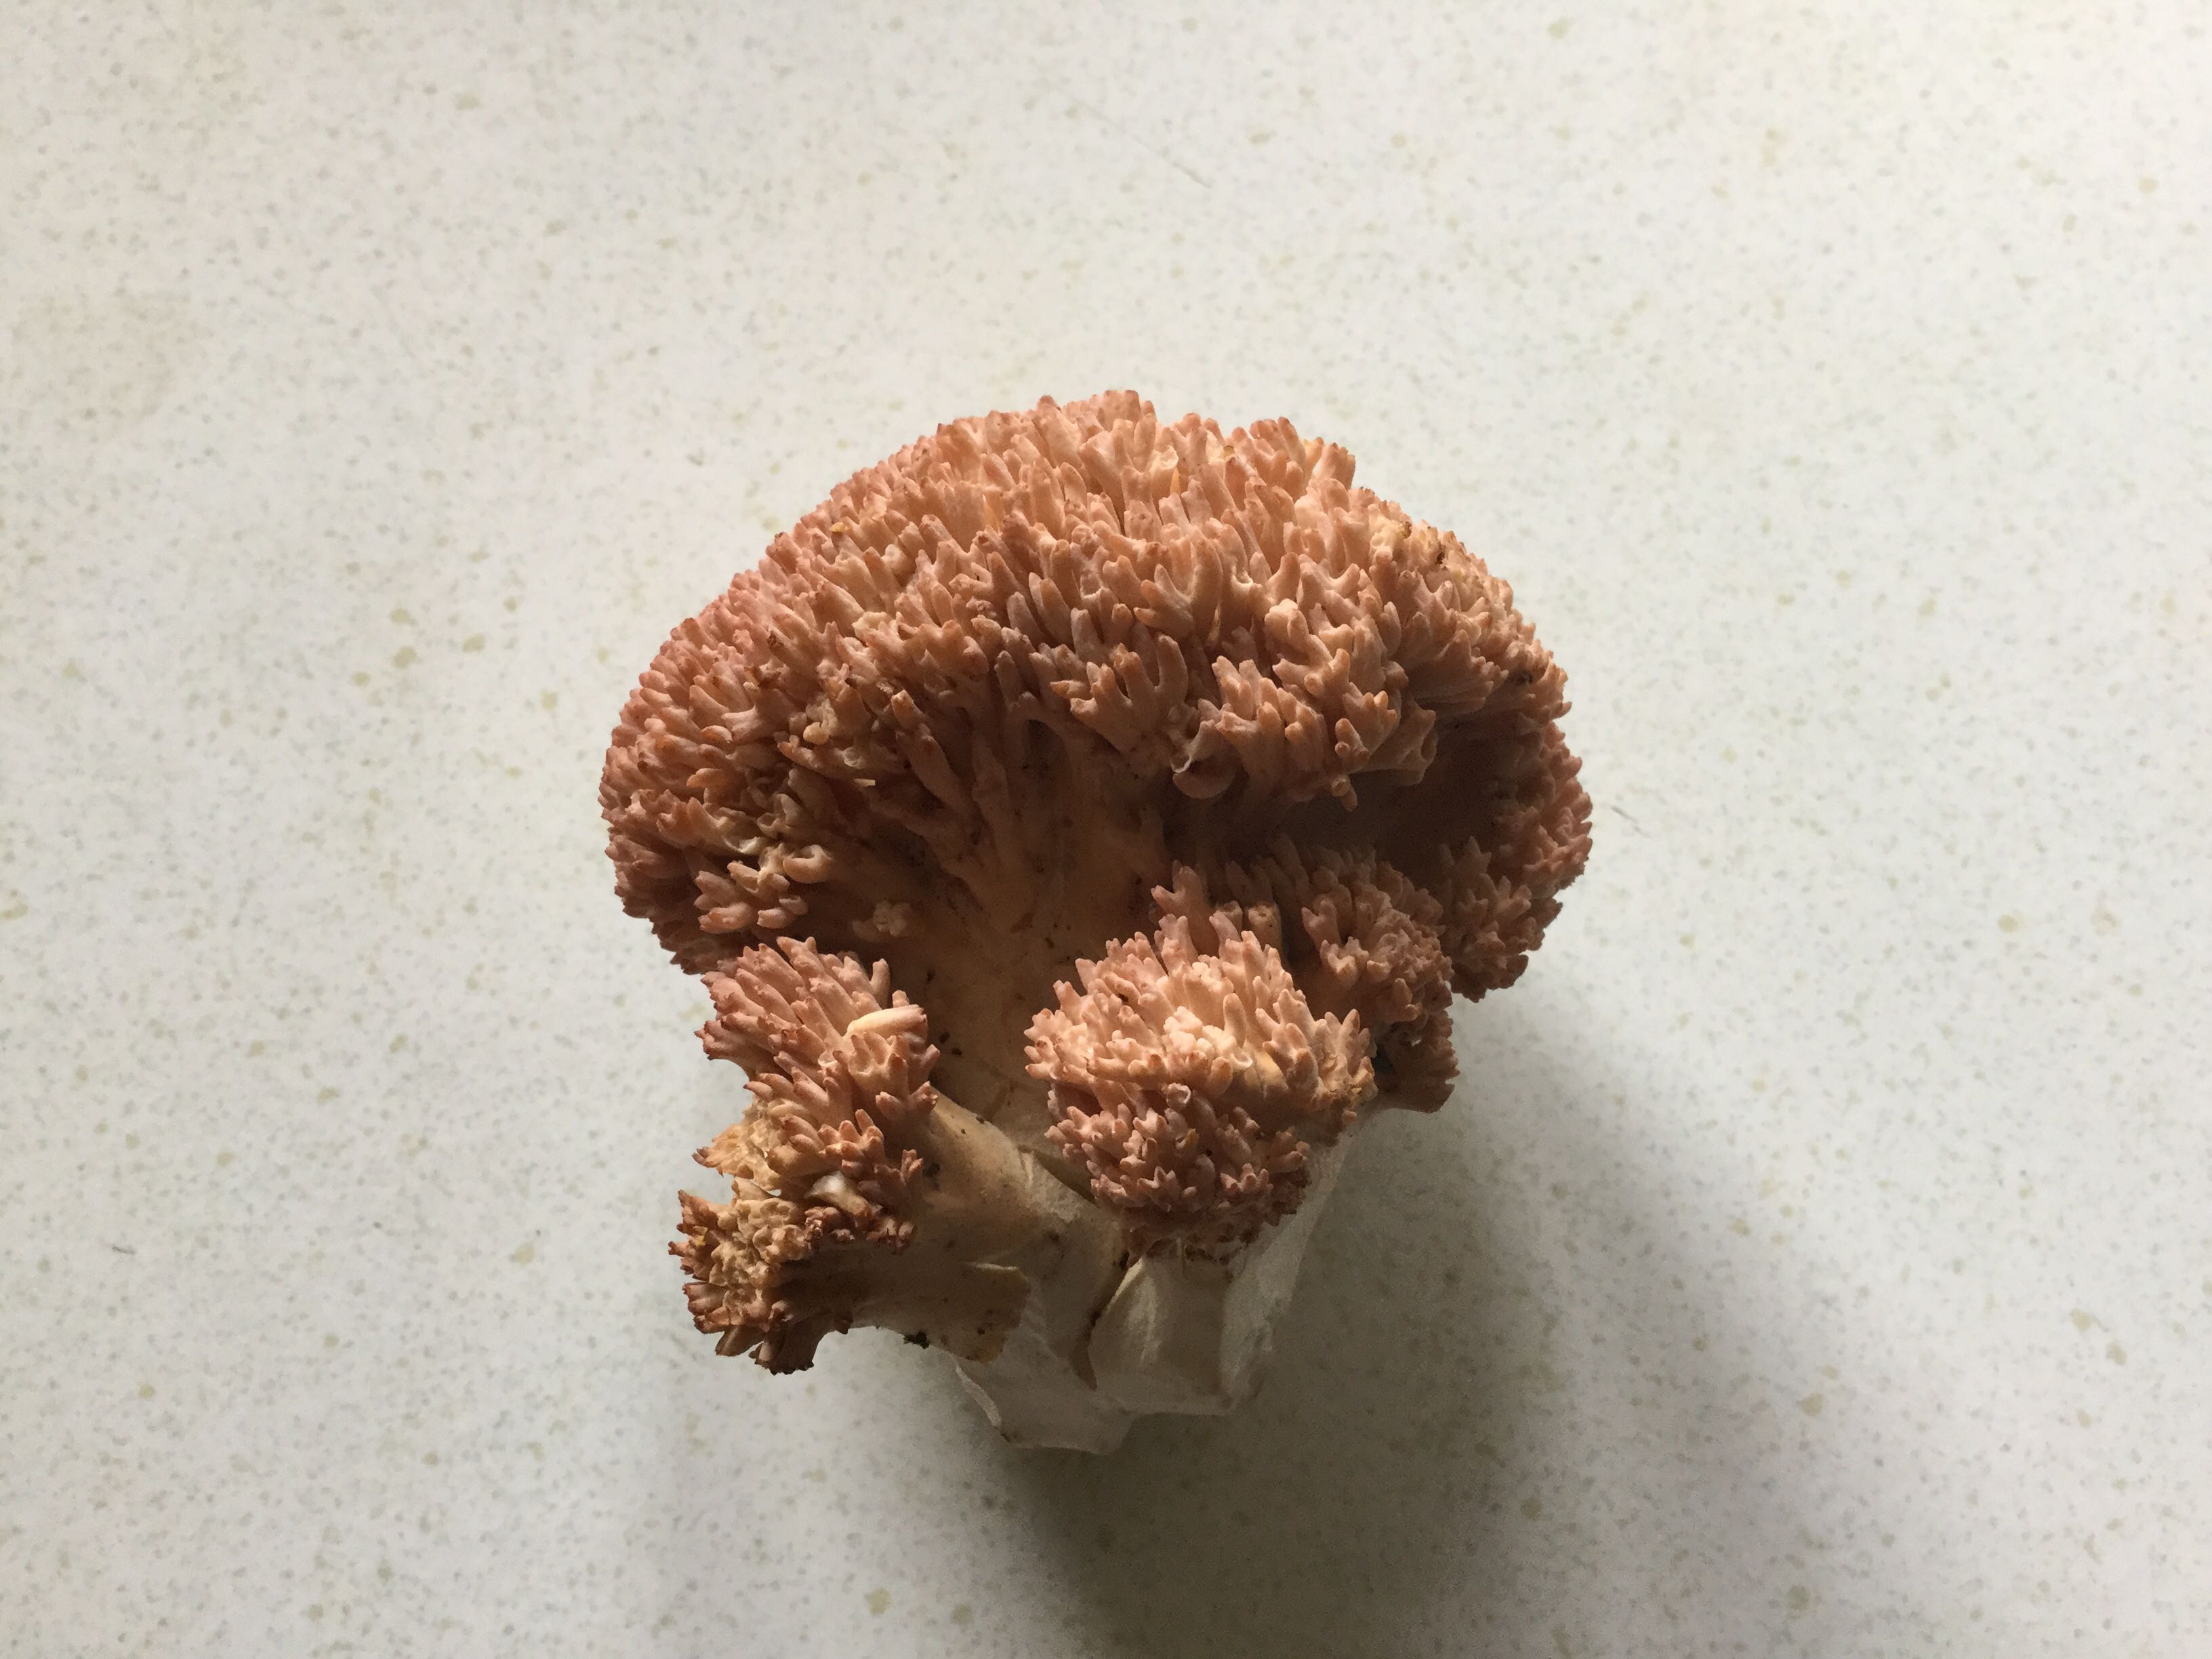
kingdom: Fungi
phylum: Basidiomycota
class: Agaricomycetes
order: Gomphales
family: Gomphaceae
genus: Ramaria
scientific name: Ramaria botrytis
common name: drue-koralsvamp
